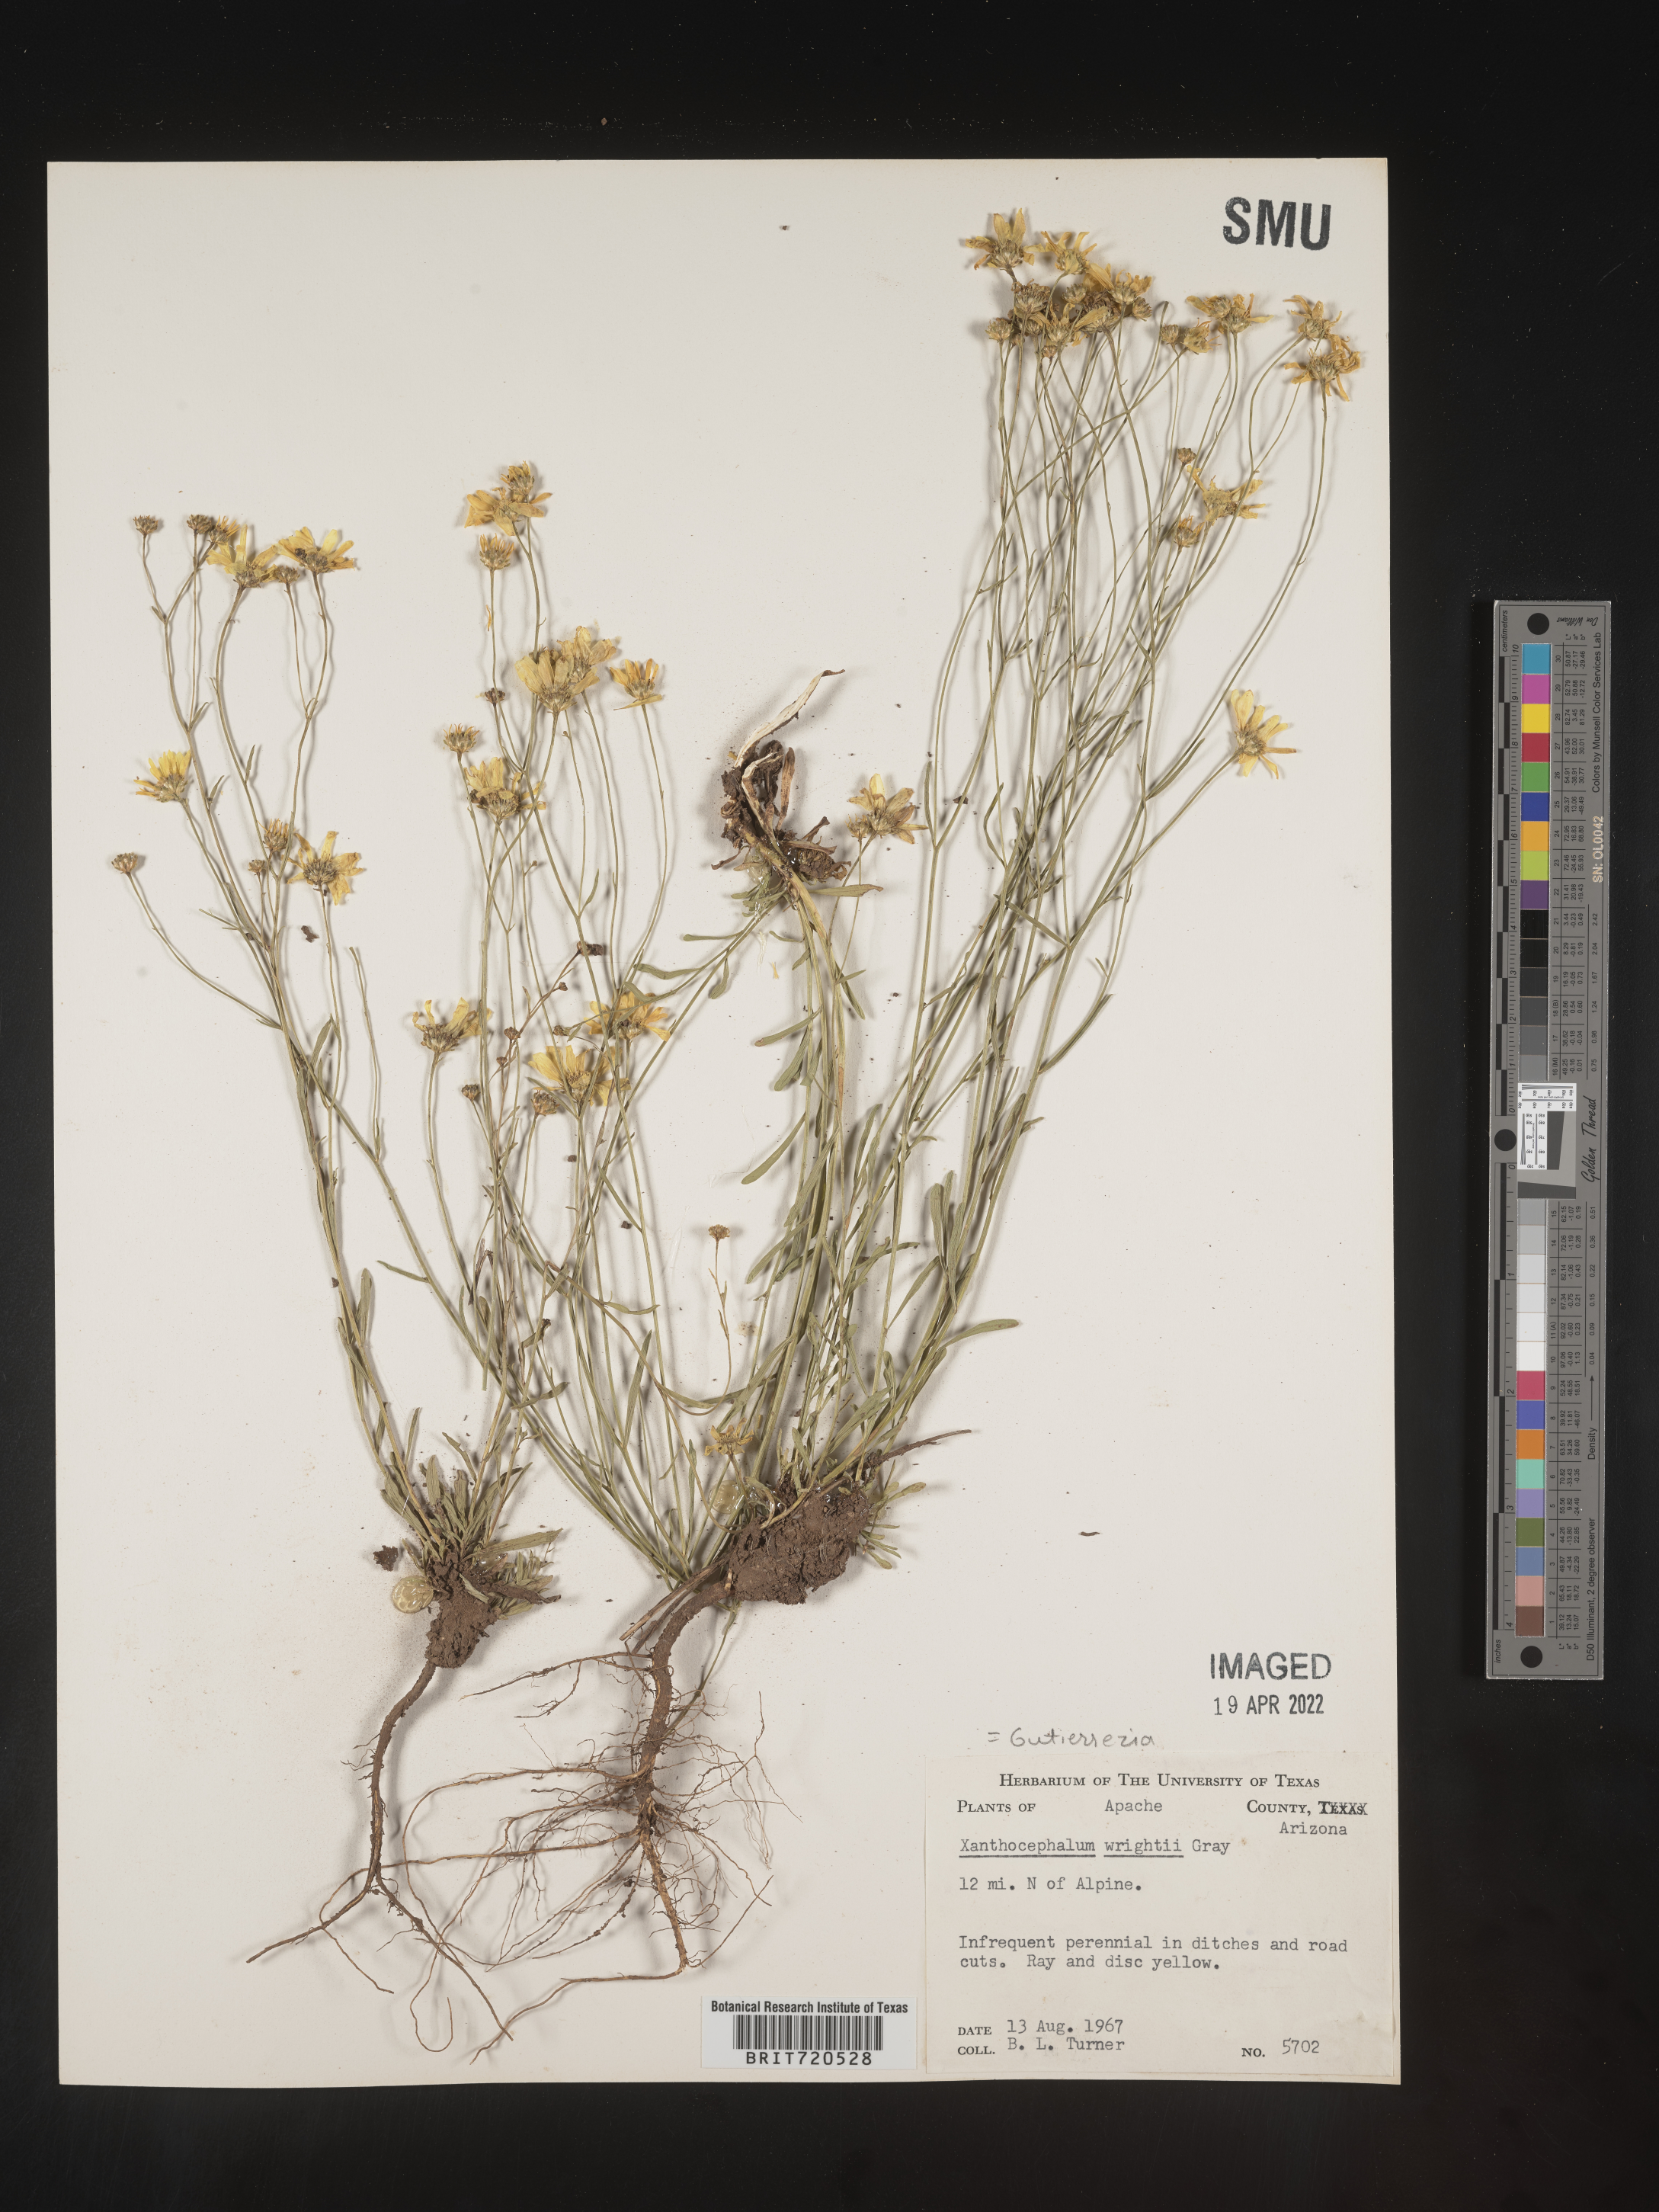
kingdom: Plantae
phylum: Tracheophyta
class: Magnoliopsida
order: Asterales
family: Asteraceae
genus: Gutierrezia
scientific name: Gutierrezia wrightii
